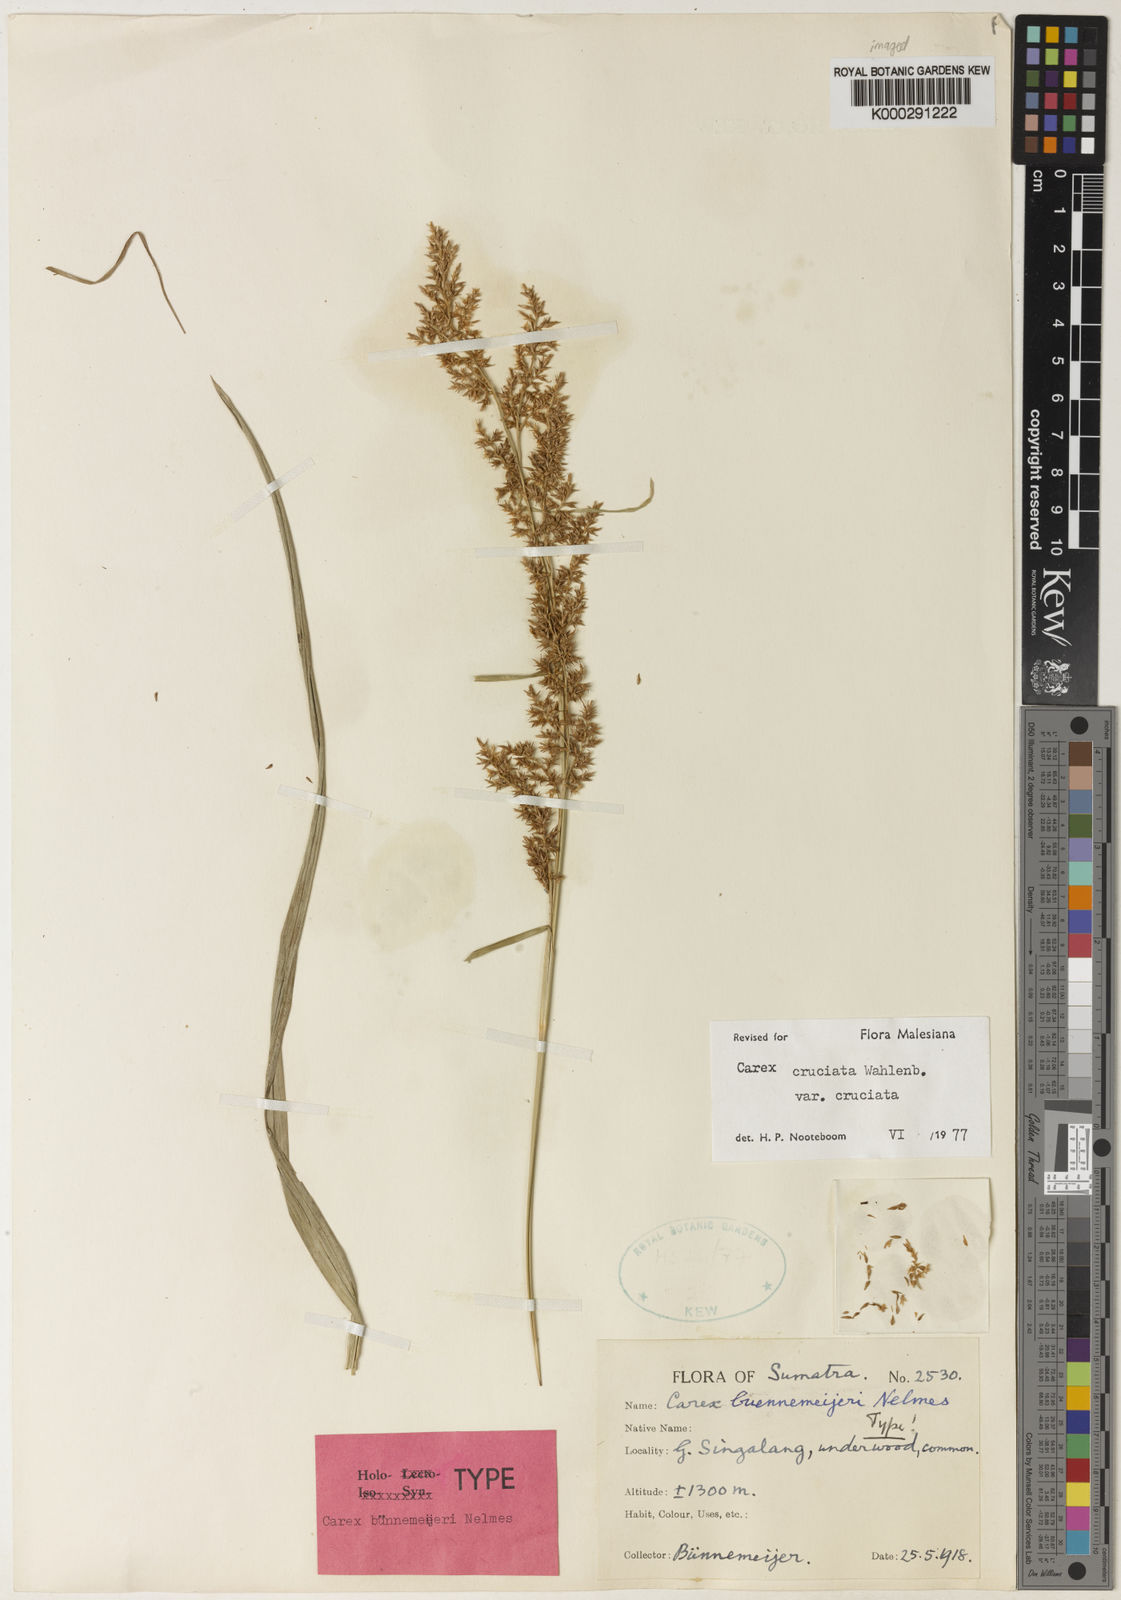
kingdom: Plantae
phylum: Tracheophyta
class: Liliopsida
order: Poales
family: Cyperaceae
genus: Carex
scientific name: Carex rafflesiana
